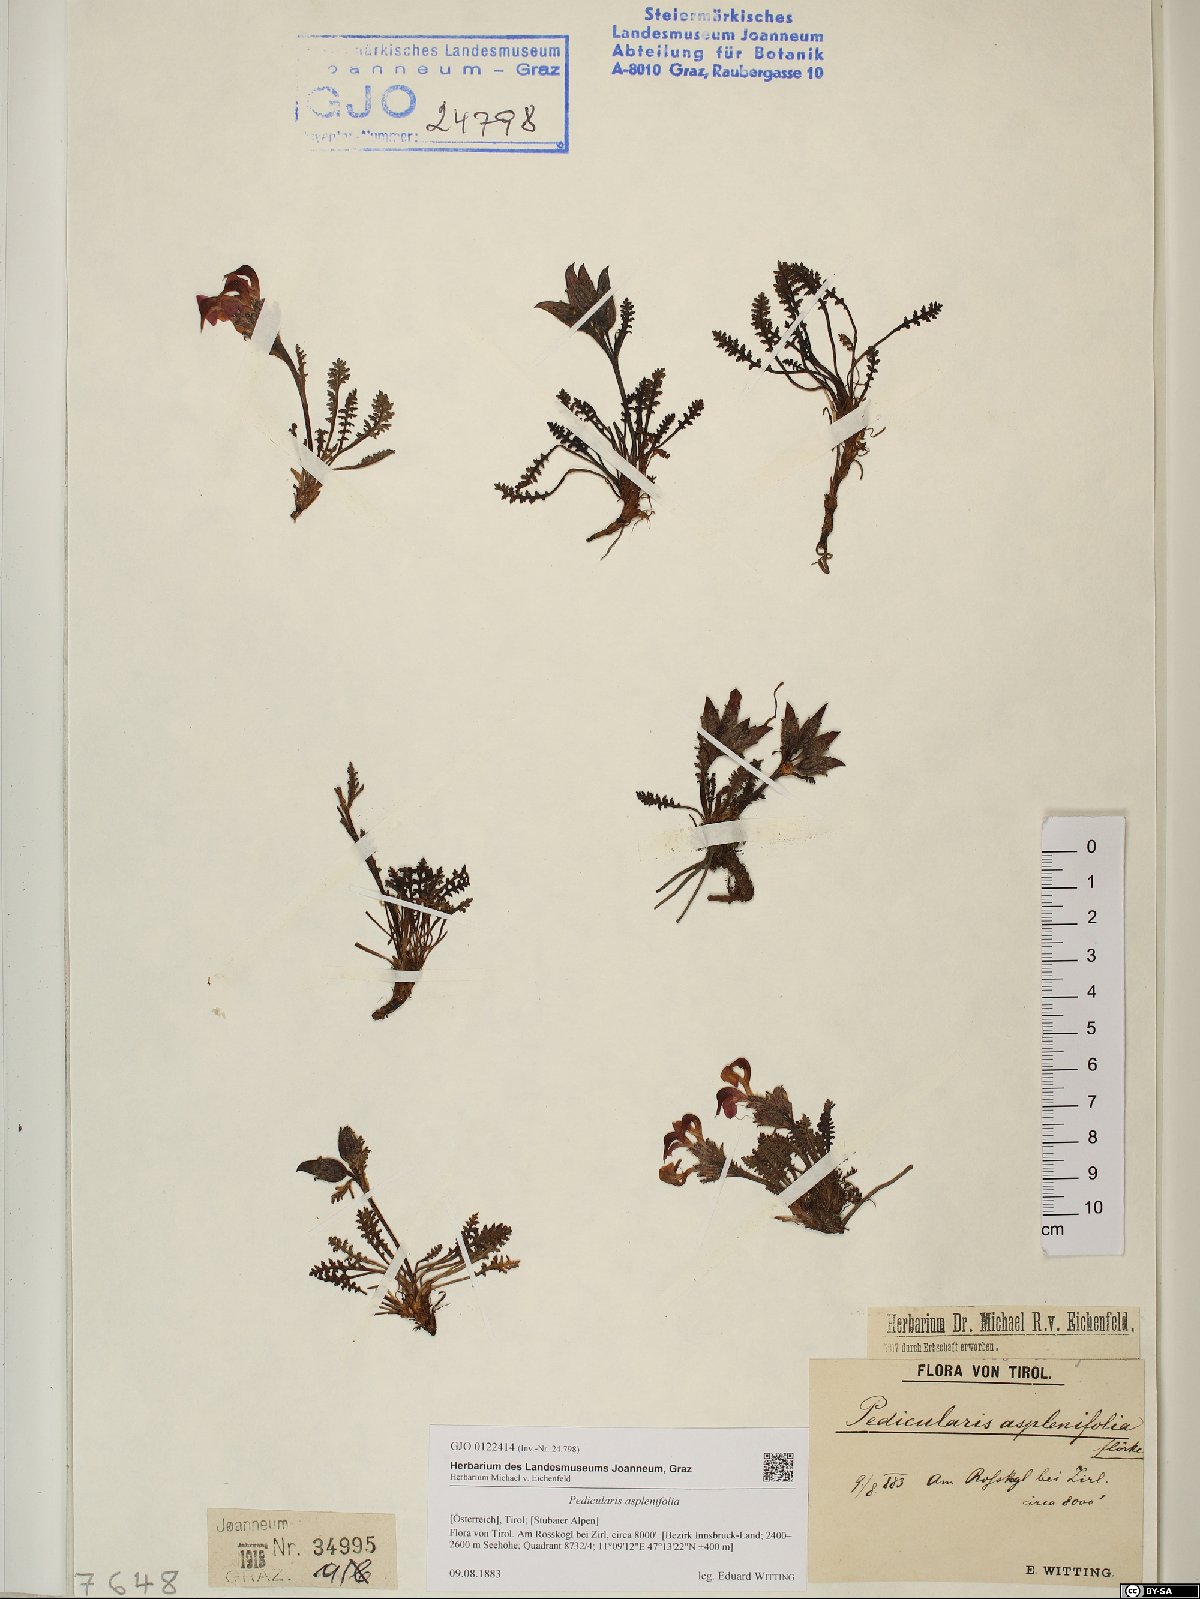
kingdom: Plantae
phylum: Tracheophyta
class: Magnoliopsida
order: Lamiales
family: Orobanchaceae
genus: Pedicularis
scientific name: Pedicularis asplenifolia
